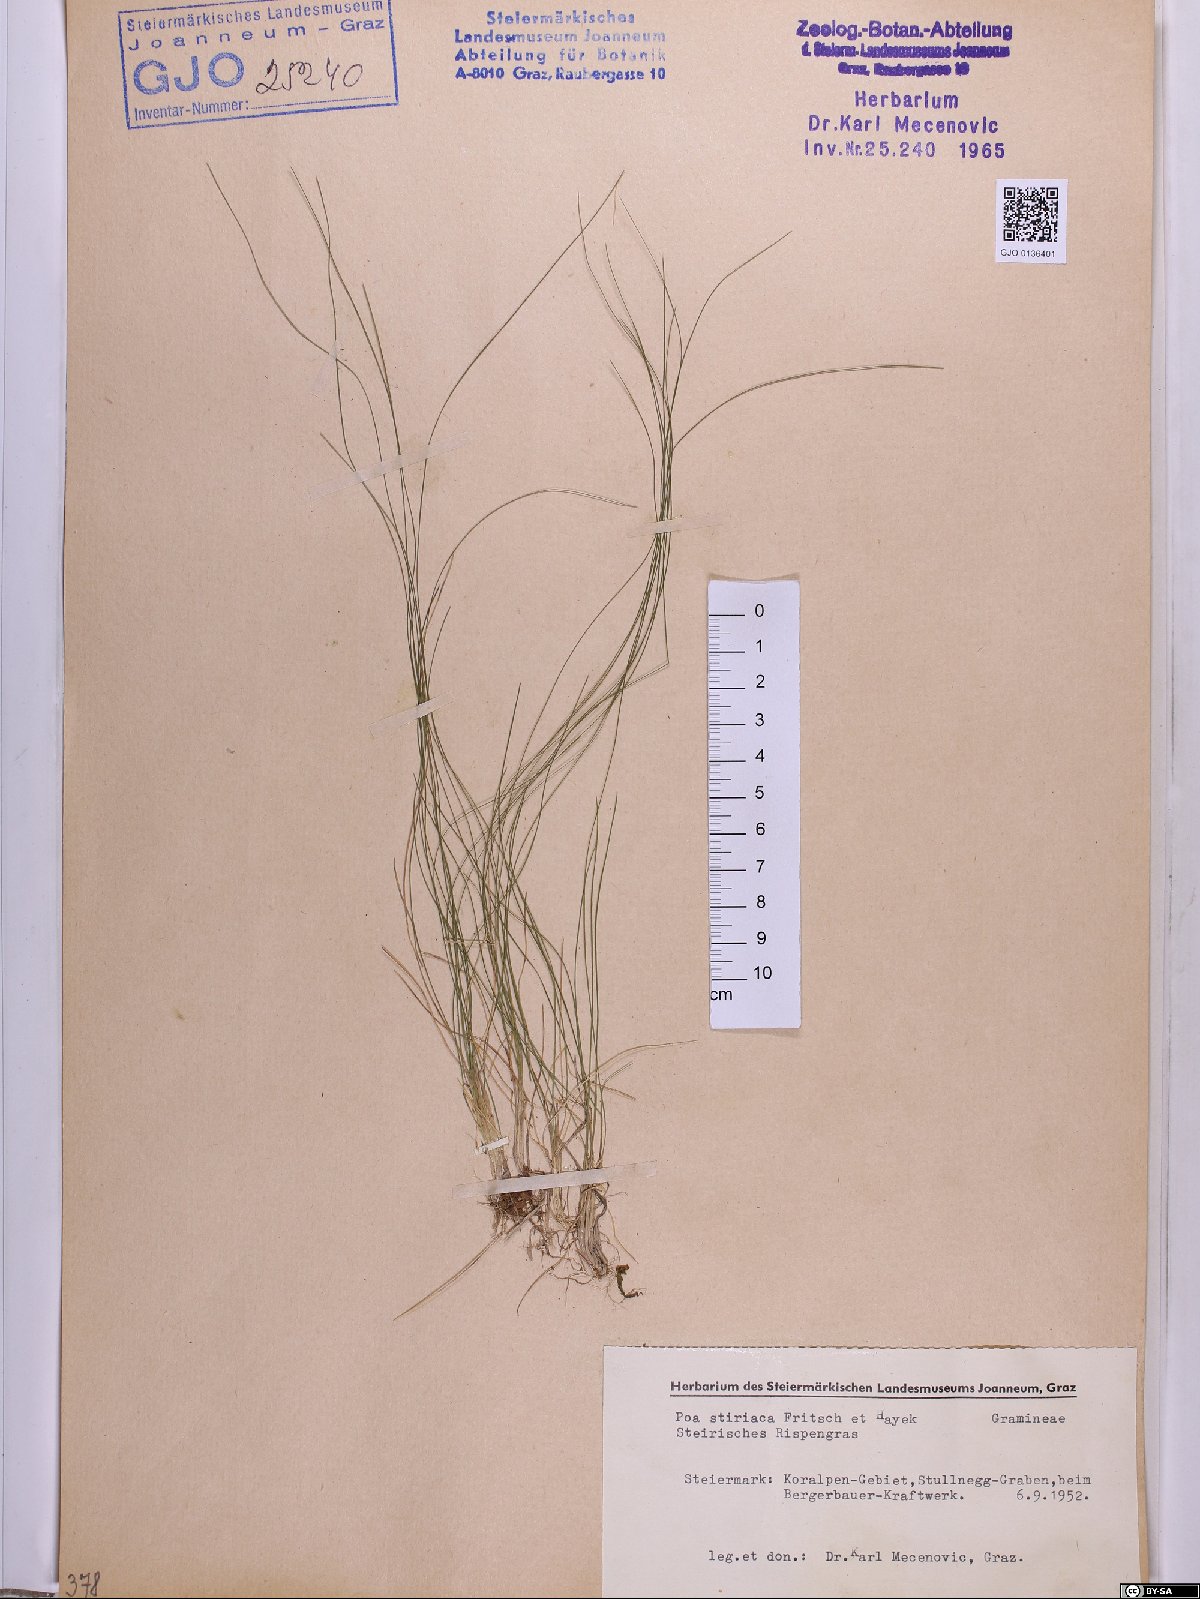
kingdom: Plantae
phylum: Tracheophyta
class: Liliopsida
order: Poales
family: Poaceae
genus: Poa
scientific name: Poa stiriaca
